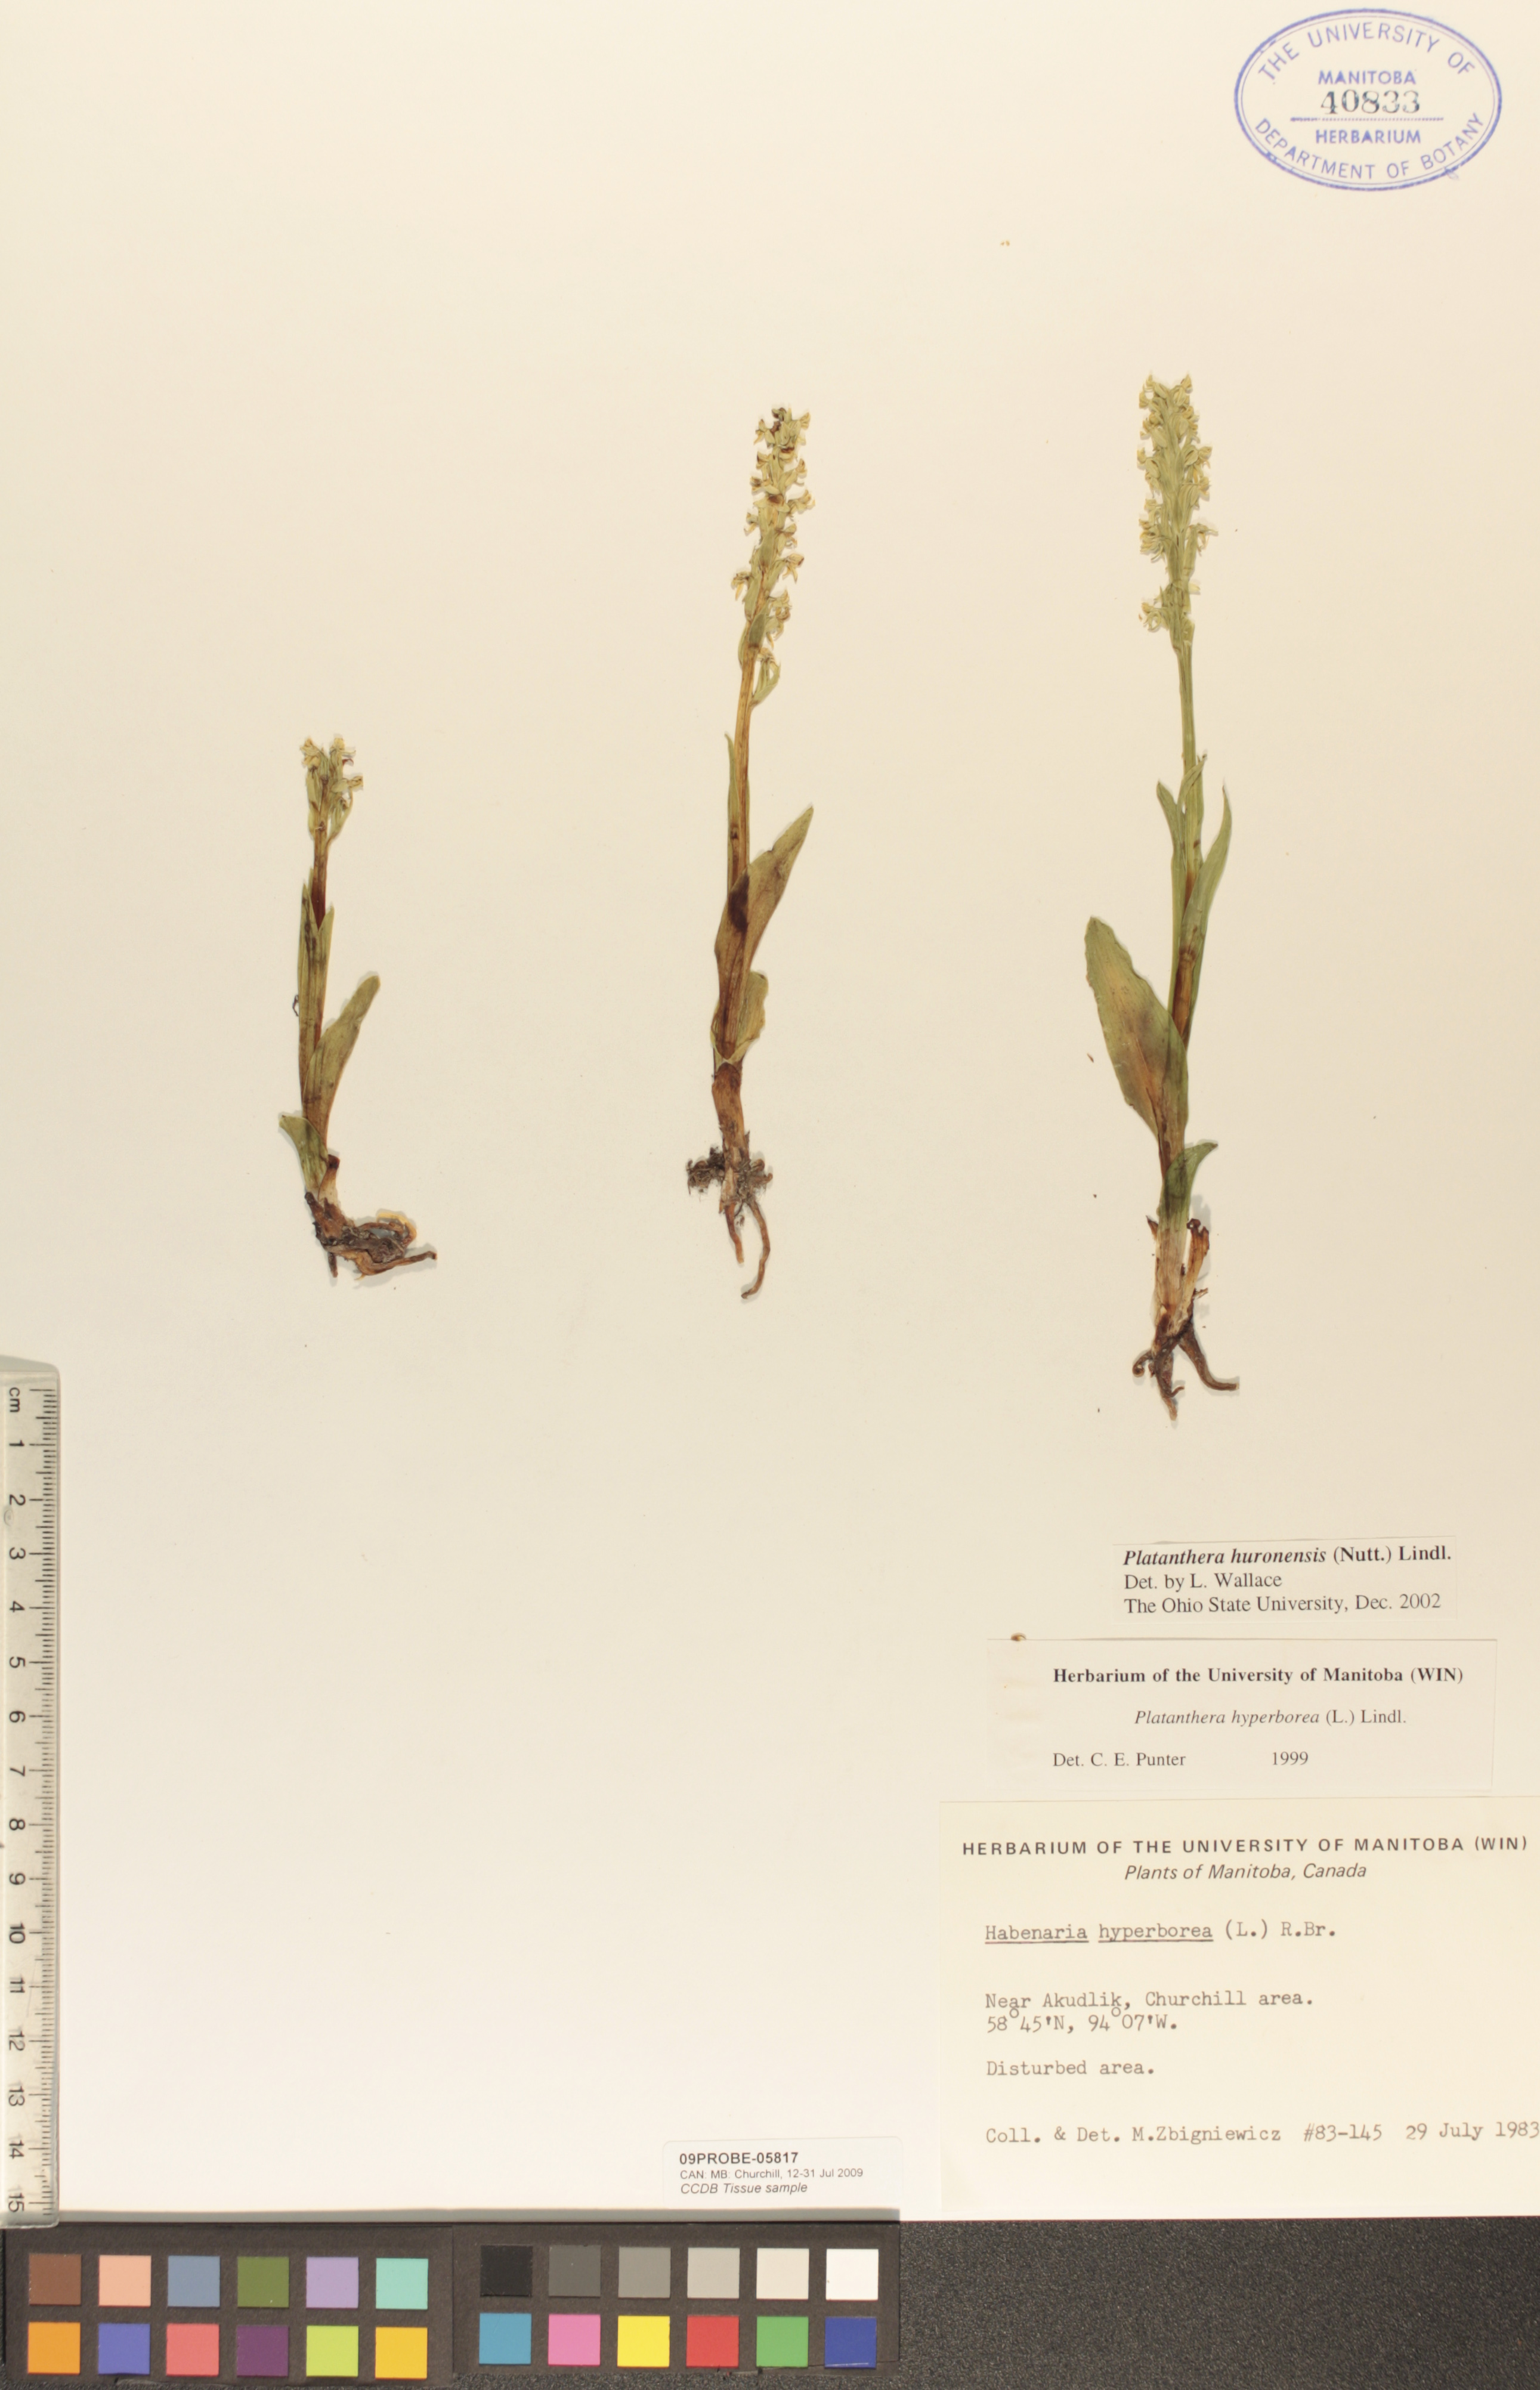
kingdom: Plantae
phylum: Tracheophyta
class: Liliopsida
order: Asparagales
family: Orchidaceae
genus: Platanthera
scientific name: Platanthera huronensis
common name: Fragrant green orchid
